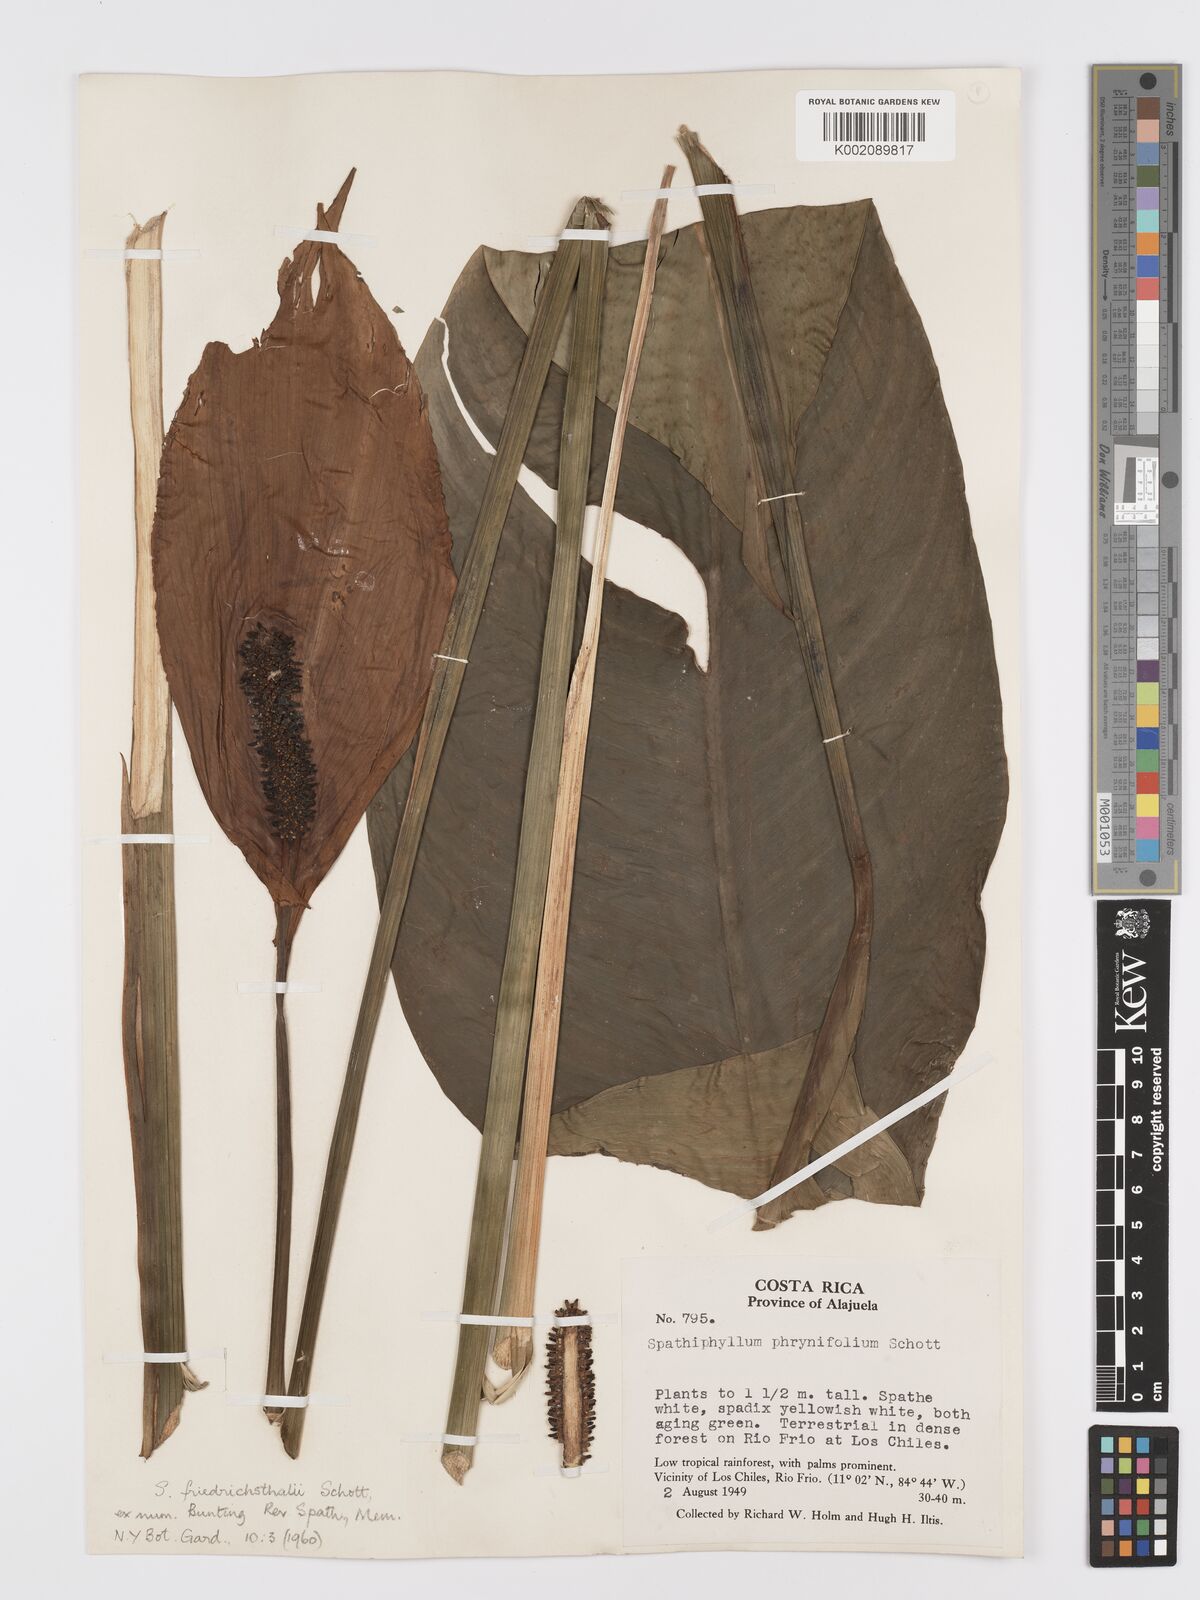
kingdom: Plantae
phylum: Tracheophyta
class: Liliopsida
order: Alismatales
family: Araceae
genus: Spathiphyllum
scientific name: Spathiphyllum friedrichsthalii
